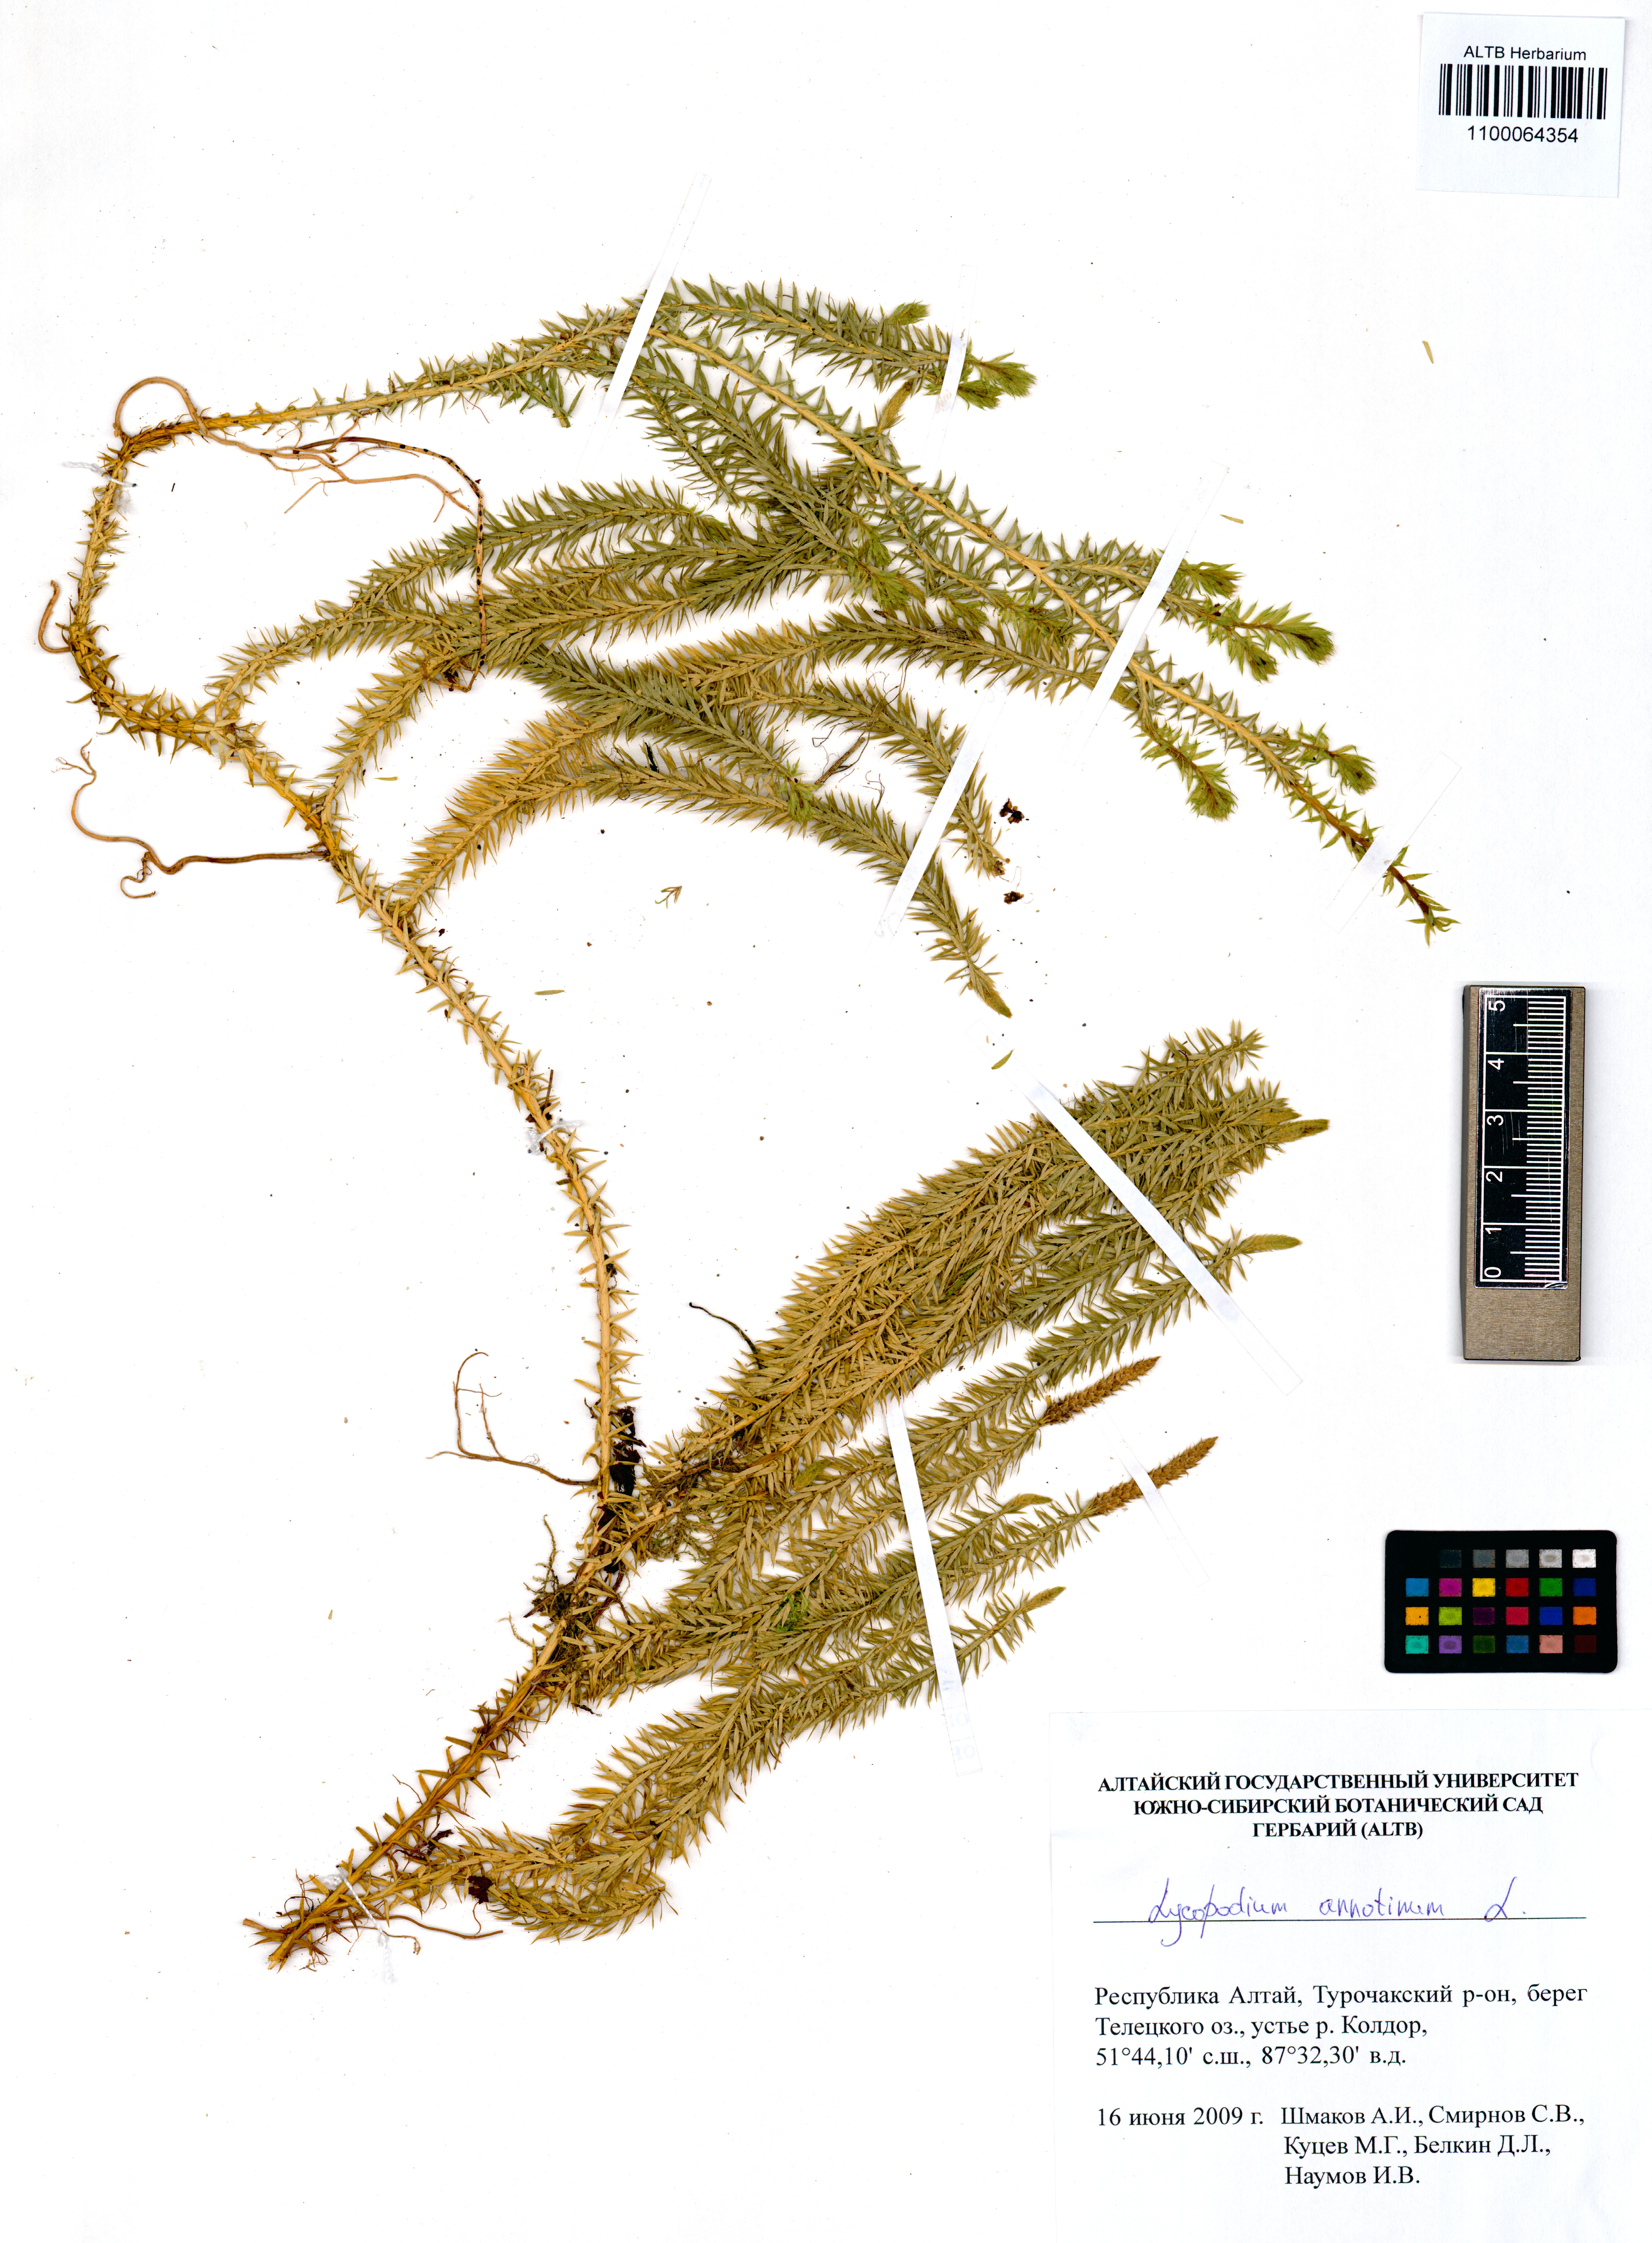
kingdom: Plantae
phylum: Tracheophyta
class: Lycopodiopsida
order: Lycopodiales
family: Lycopodiaceae
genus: Spinulum
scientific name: Spinulum annotinum
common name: Interrupted club-moss
